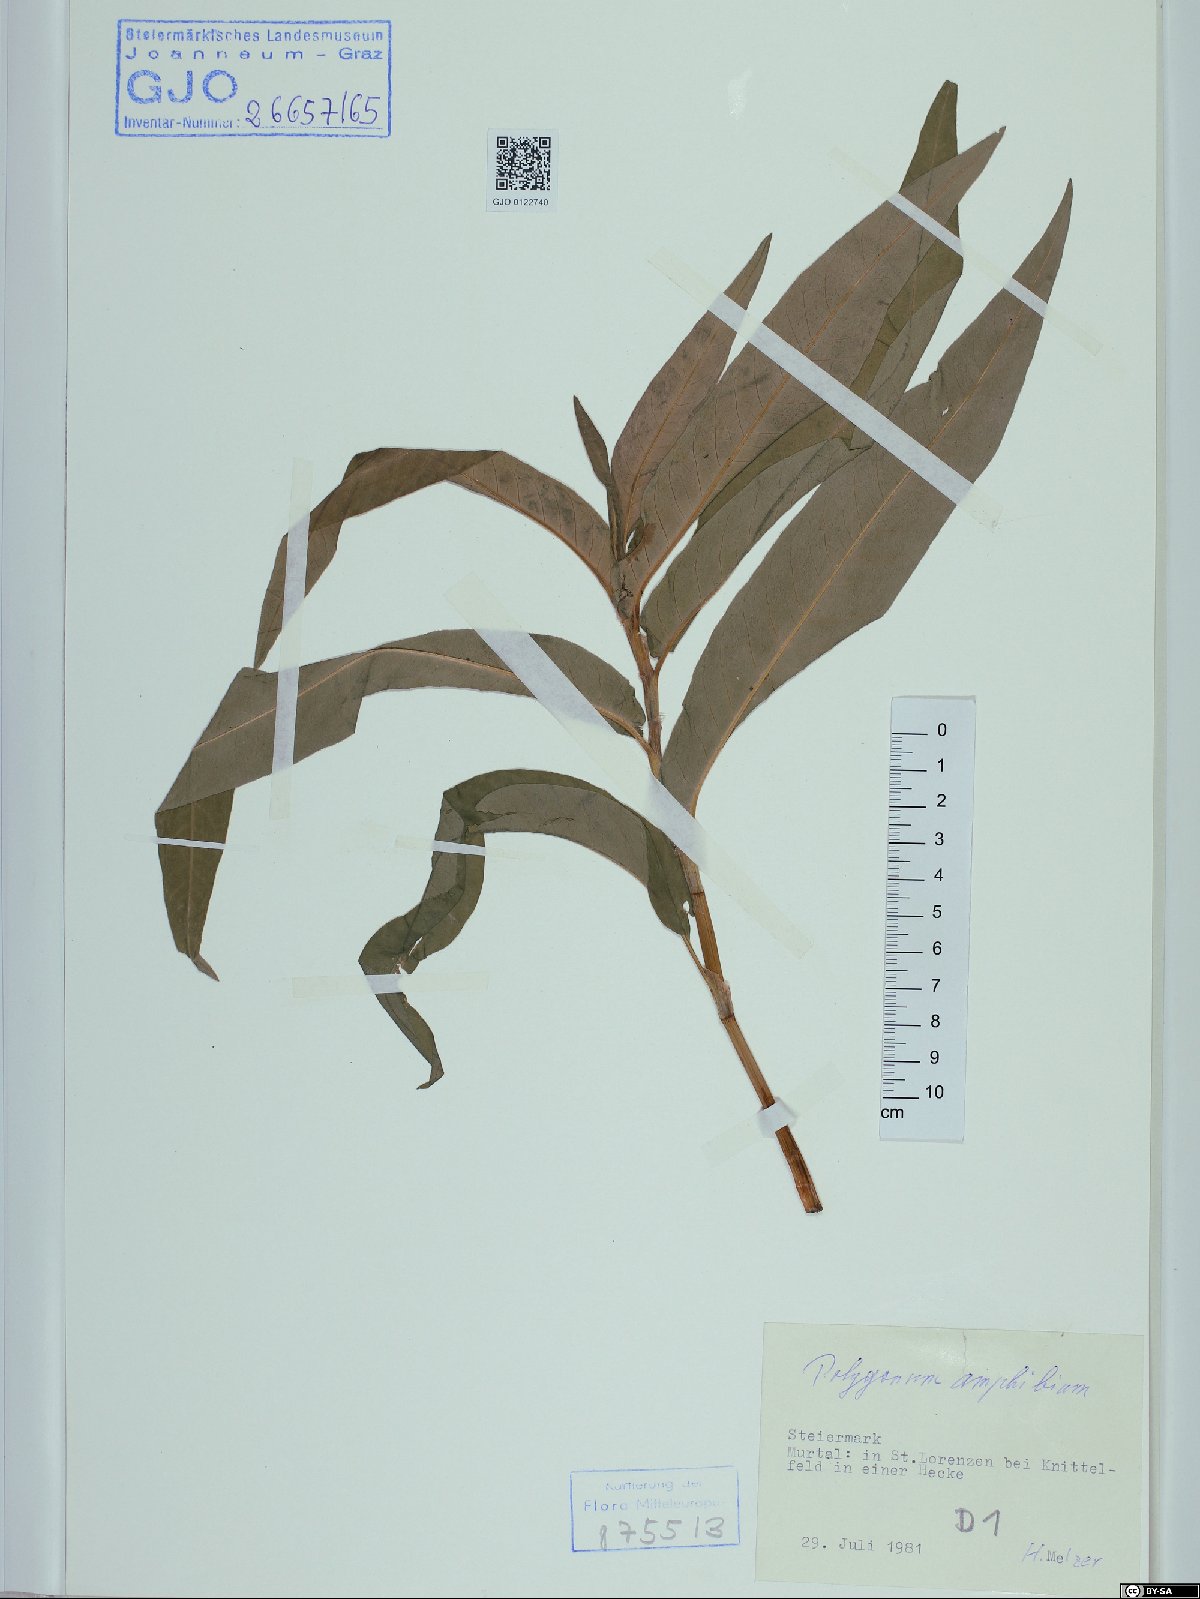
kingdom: Plantae
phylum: Tracheophyta
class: Magnoliopsida
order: Caryophyllales
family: Polygonaceae
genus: Persicaria
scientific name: Persicaria amphibia
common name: Amphibious bistort
